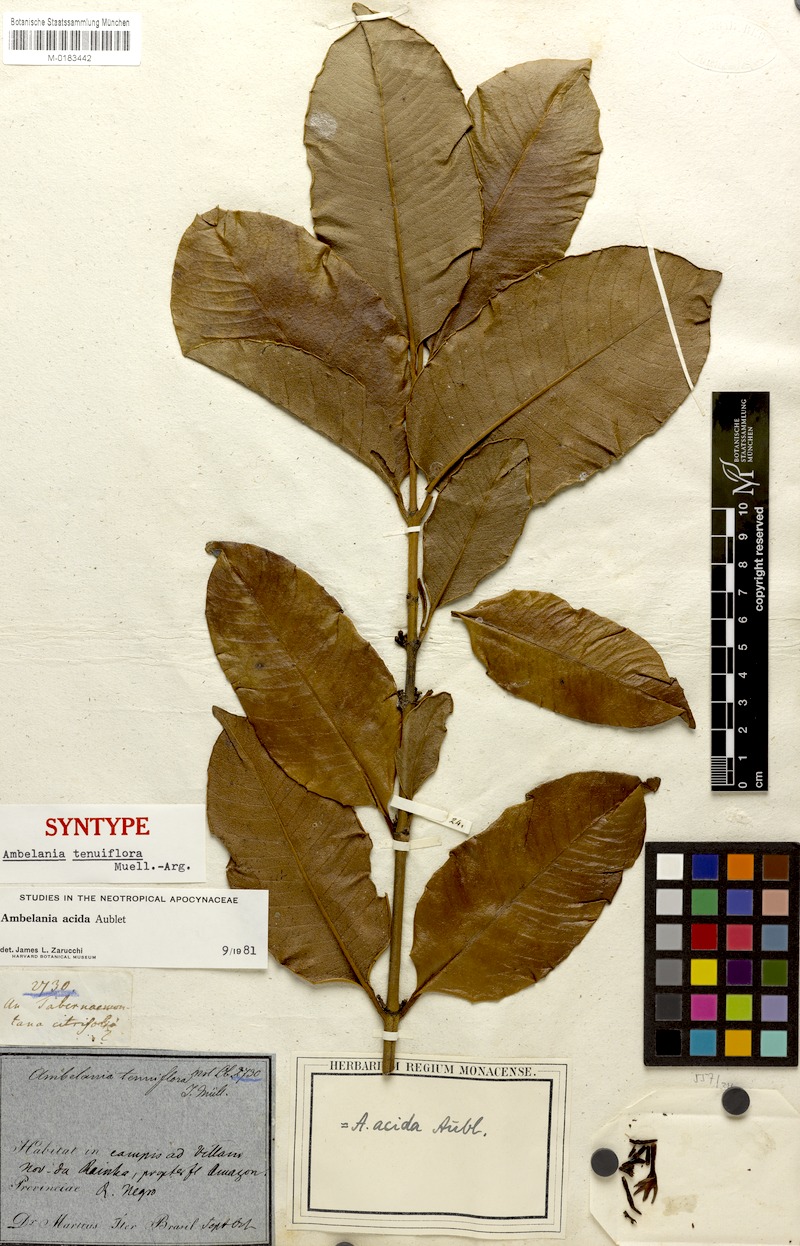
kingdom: Plantae
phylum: Tracheophyta
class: Magnoliopsida
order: Gentianales
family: Apocynaceae
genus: Ambelania
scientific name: Ambelania acida
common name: Bagasse
